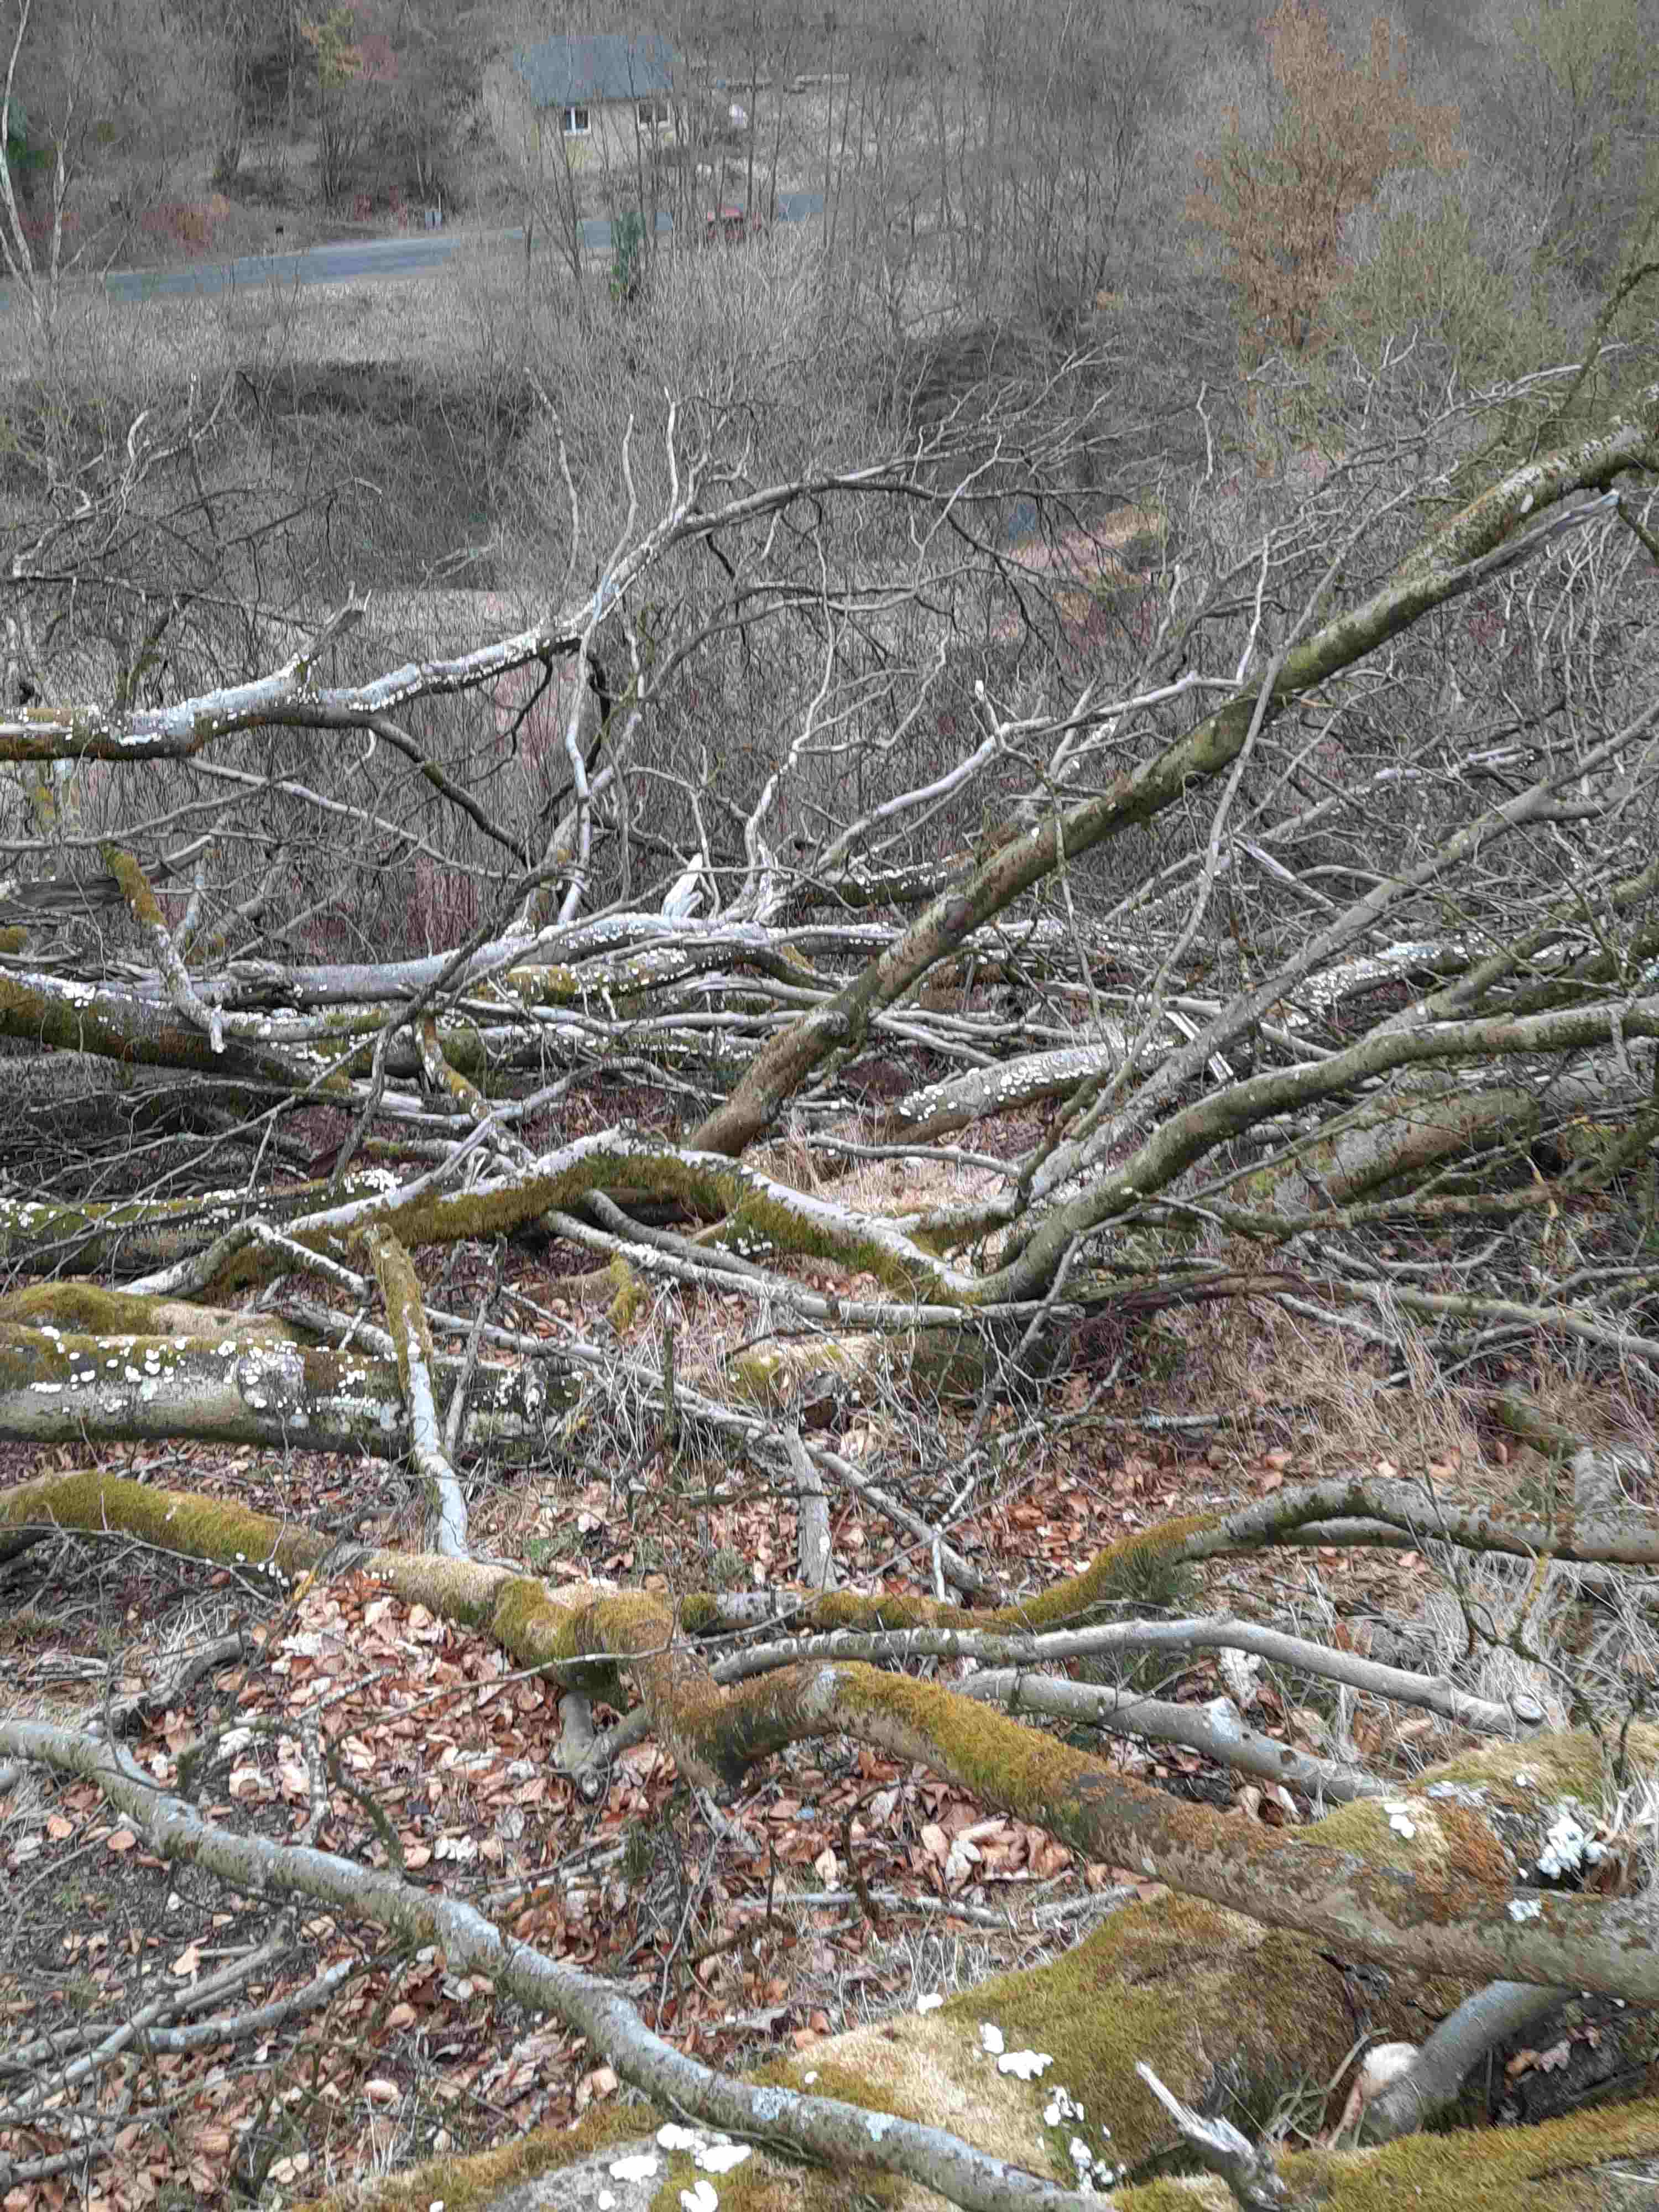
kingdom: Fungi
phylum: Basidiomycota
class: Agaricomycetes
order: Agaricales
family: Schizophyllaceae
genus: Schizophyllum
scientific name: Schizophyllum commune
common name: kløvblad
